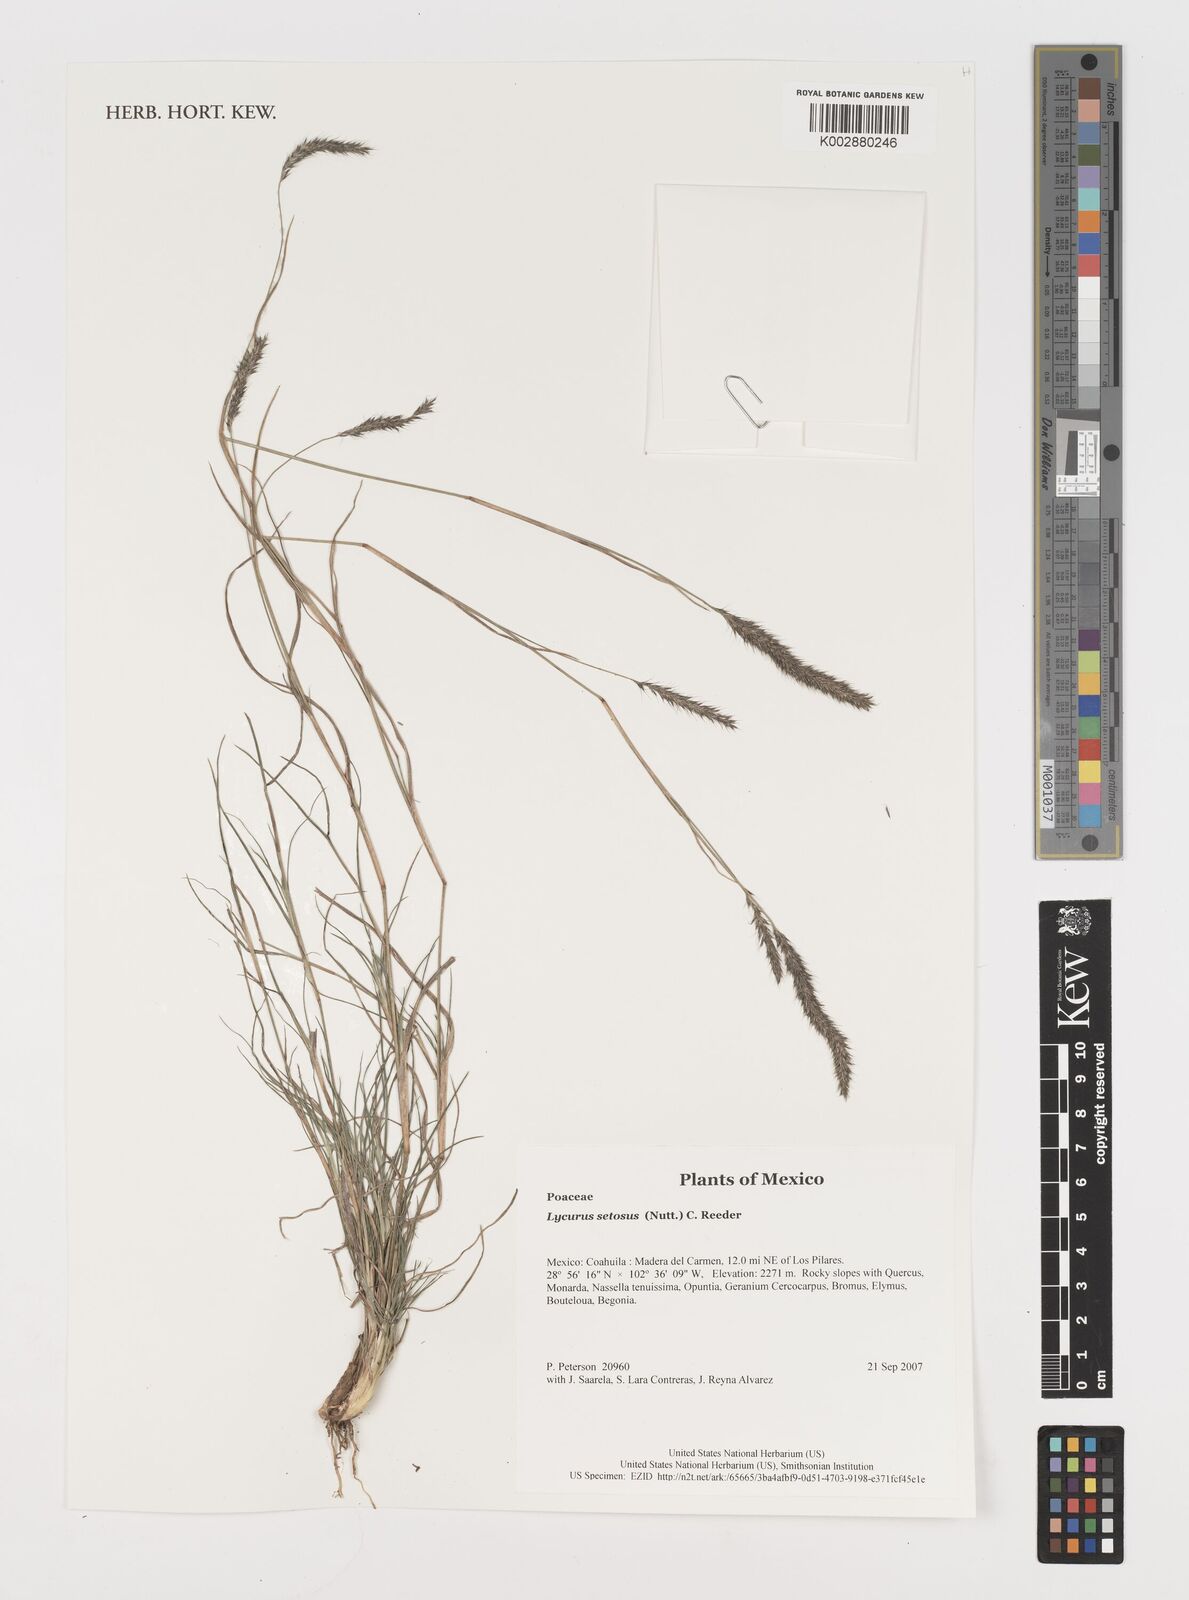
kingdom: Plantae
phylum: Tracheophyta
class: Liliopsida
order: Poales
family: Poaceae
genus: Muhlenbergia
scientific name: Muhlenbergia alopecuroides
